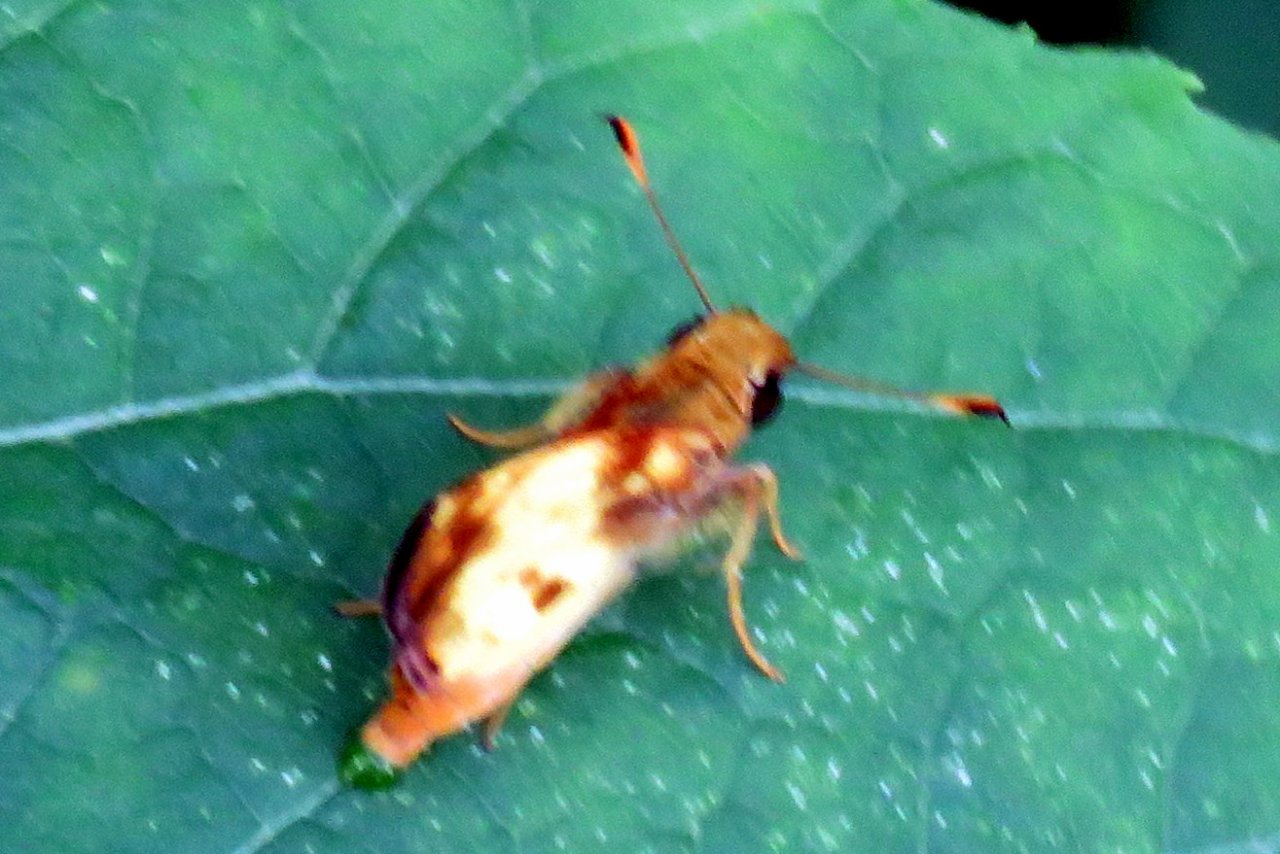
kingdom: Animalia
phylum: Arthropoda
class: Insecta
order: Lepidoptera
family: Hesperiidae
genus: Lon
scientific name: Lon zabulon
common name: Zabulon Skipper
